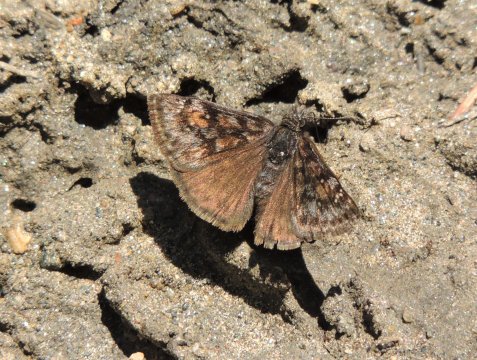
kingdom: Animalia
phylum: Arthropoda
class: Insecta
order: Lepidoptera
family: Hesperiidae
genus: Erynnis
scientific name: Erynnis pacuvius
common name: Pacuvius Duskywing
